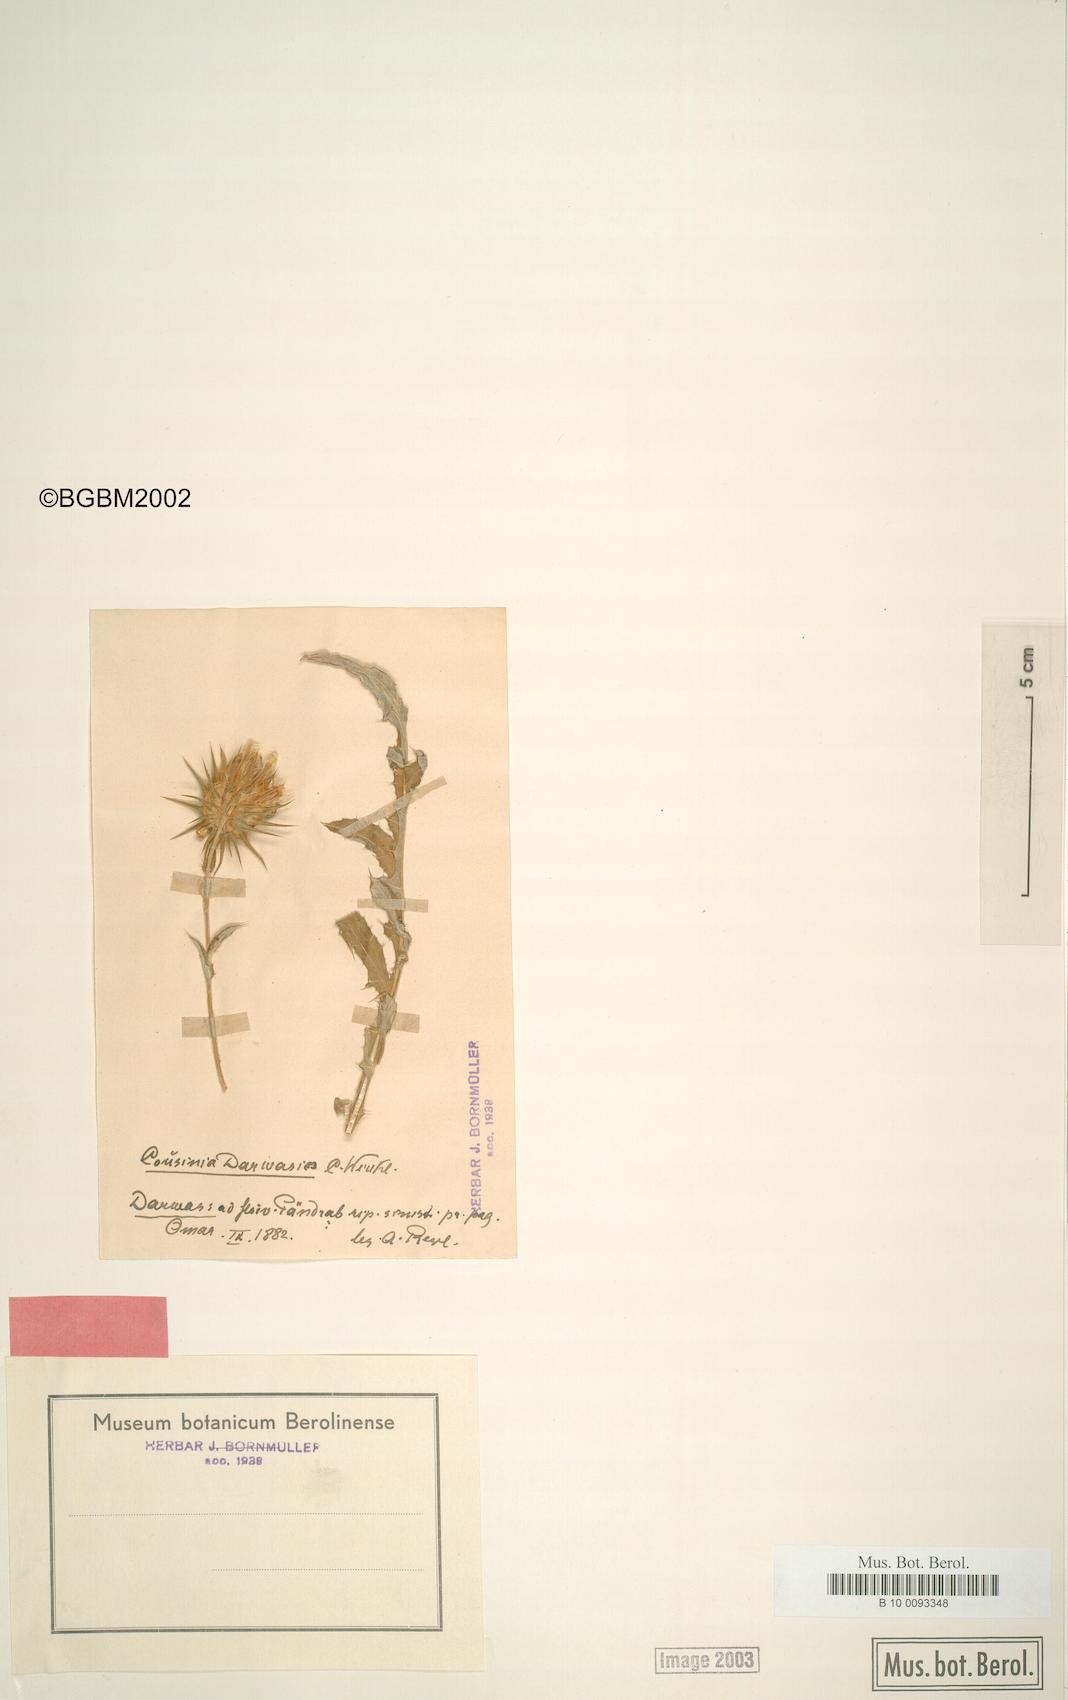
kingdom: Plantae
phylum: Tracheophyta
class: Magnoliopsida
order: Asterales
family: Asteraceae
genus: Cousinia
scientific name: Cousinia darwasica
